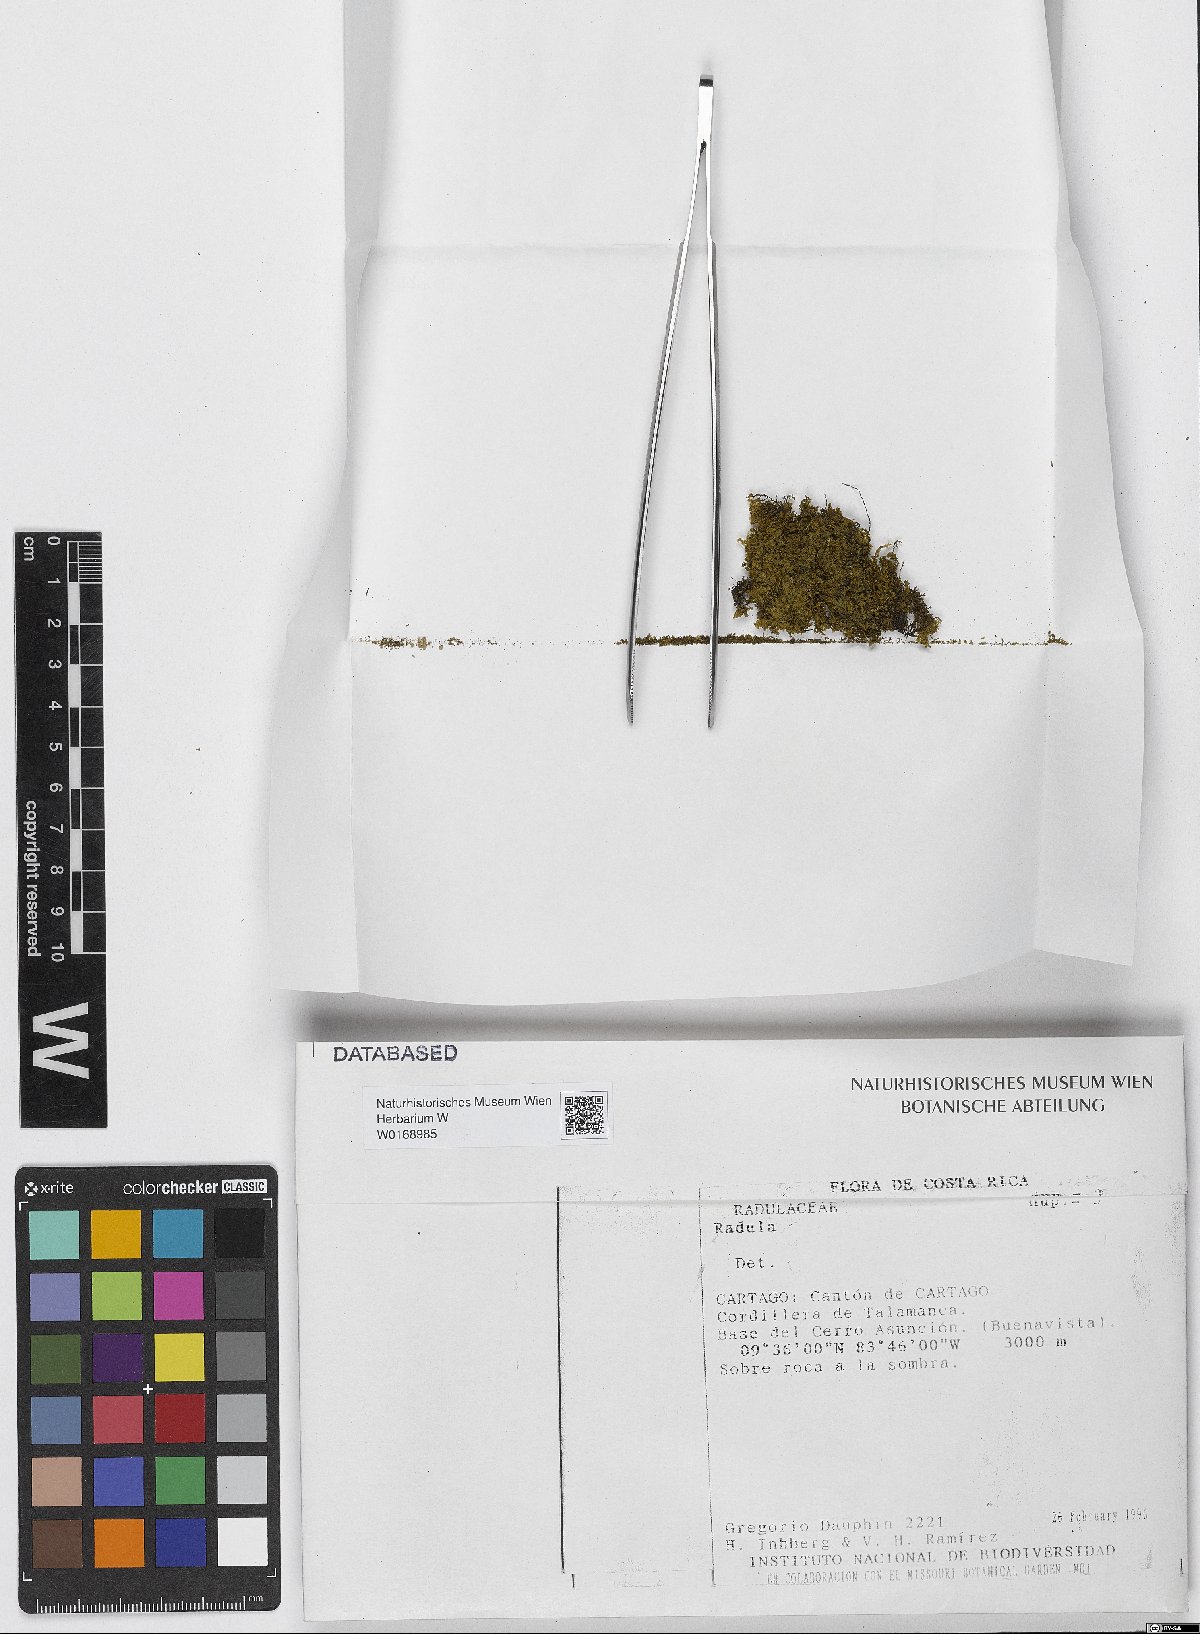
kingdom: Plantae
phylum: Marchantiophyta
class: Jungermanniopsida
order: Porellales
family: Radulaceae
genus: Radula
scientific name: Radula
